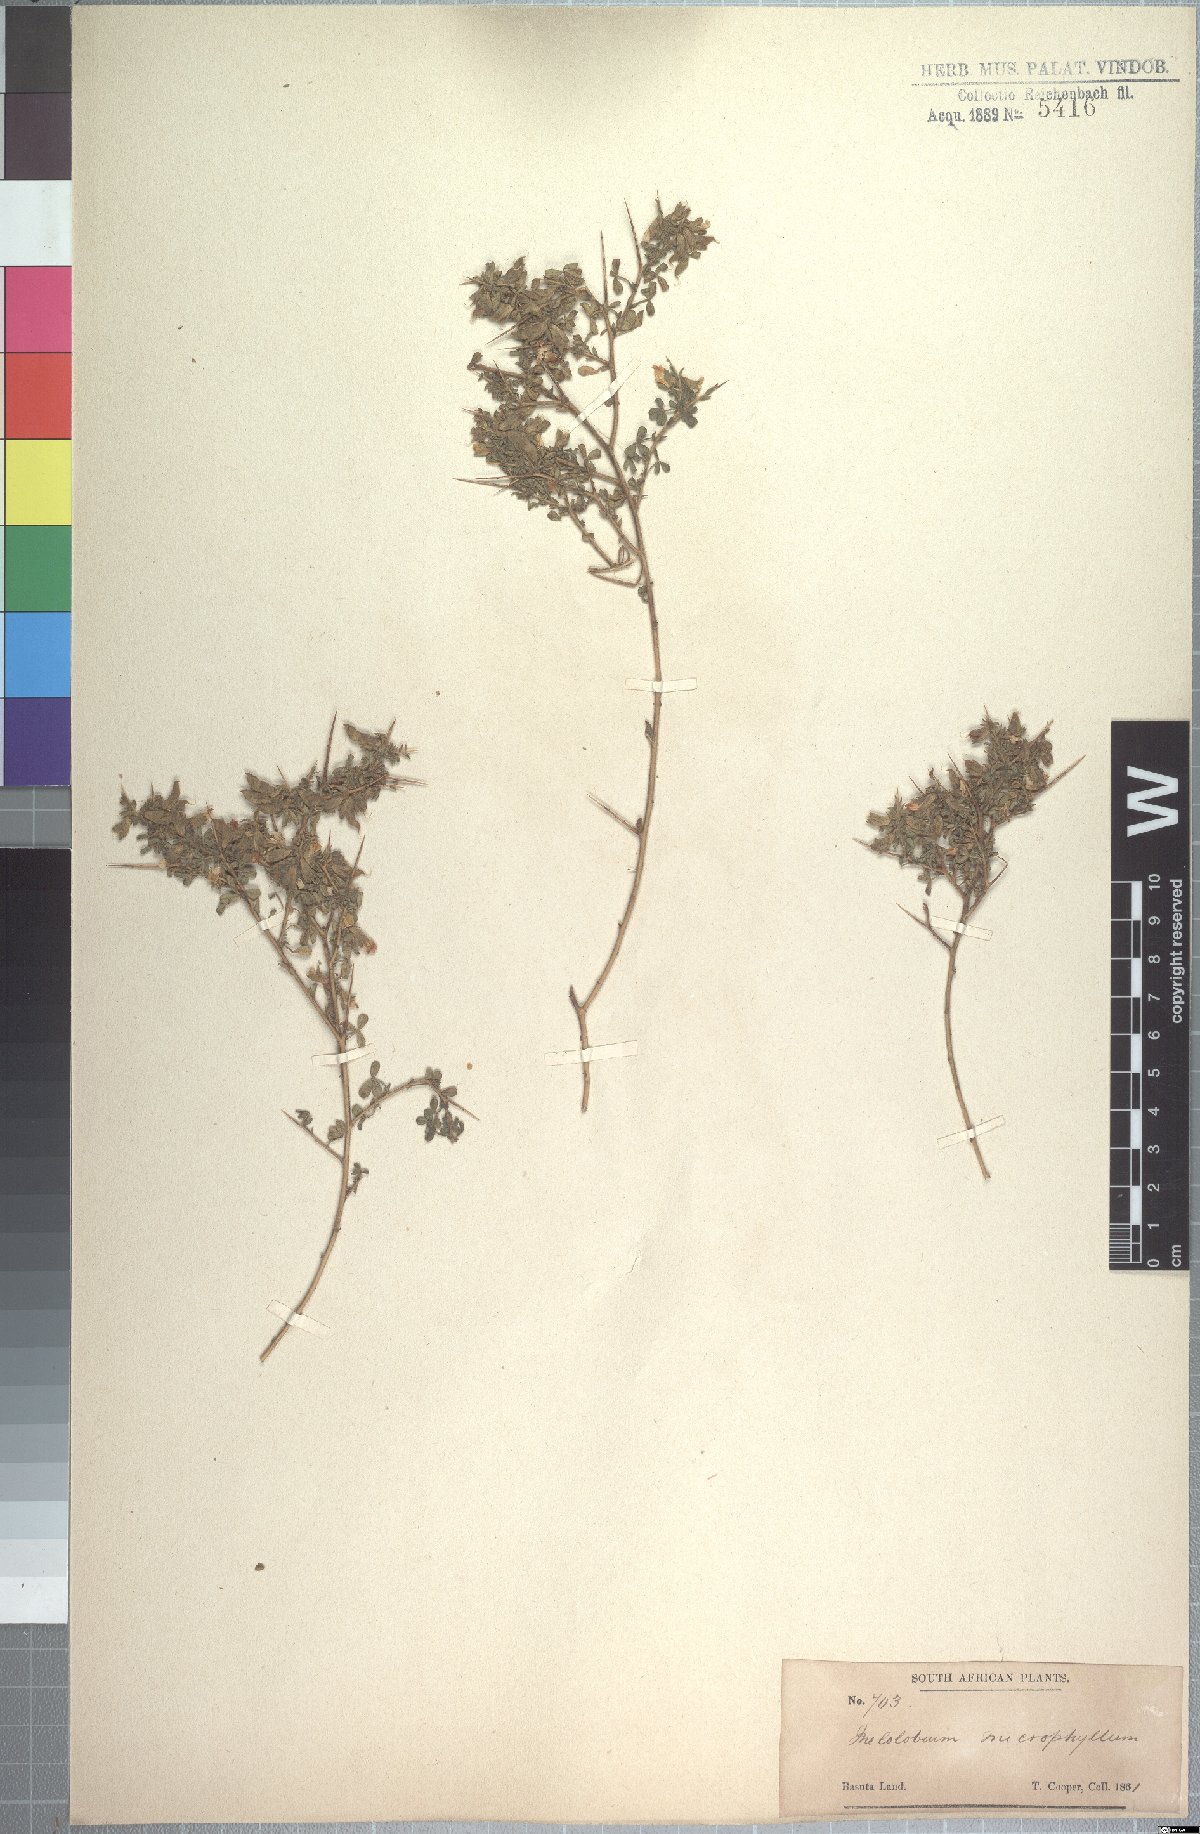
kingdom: Plantae
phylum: Tracheophyta
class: Magnoliopsida
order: Fabales
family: Fabaceae
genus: Melolobium
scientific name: Melolobium microphyllum
